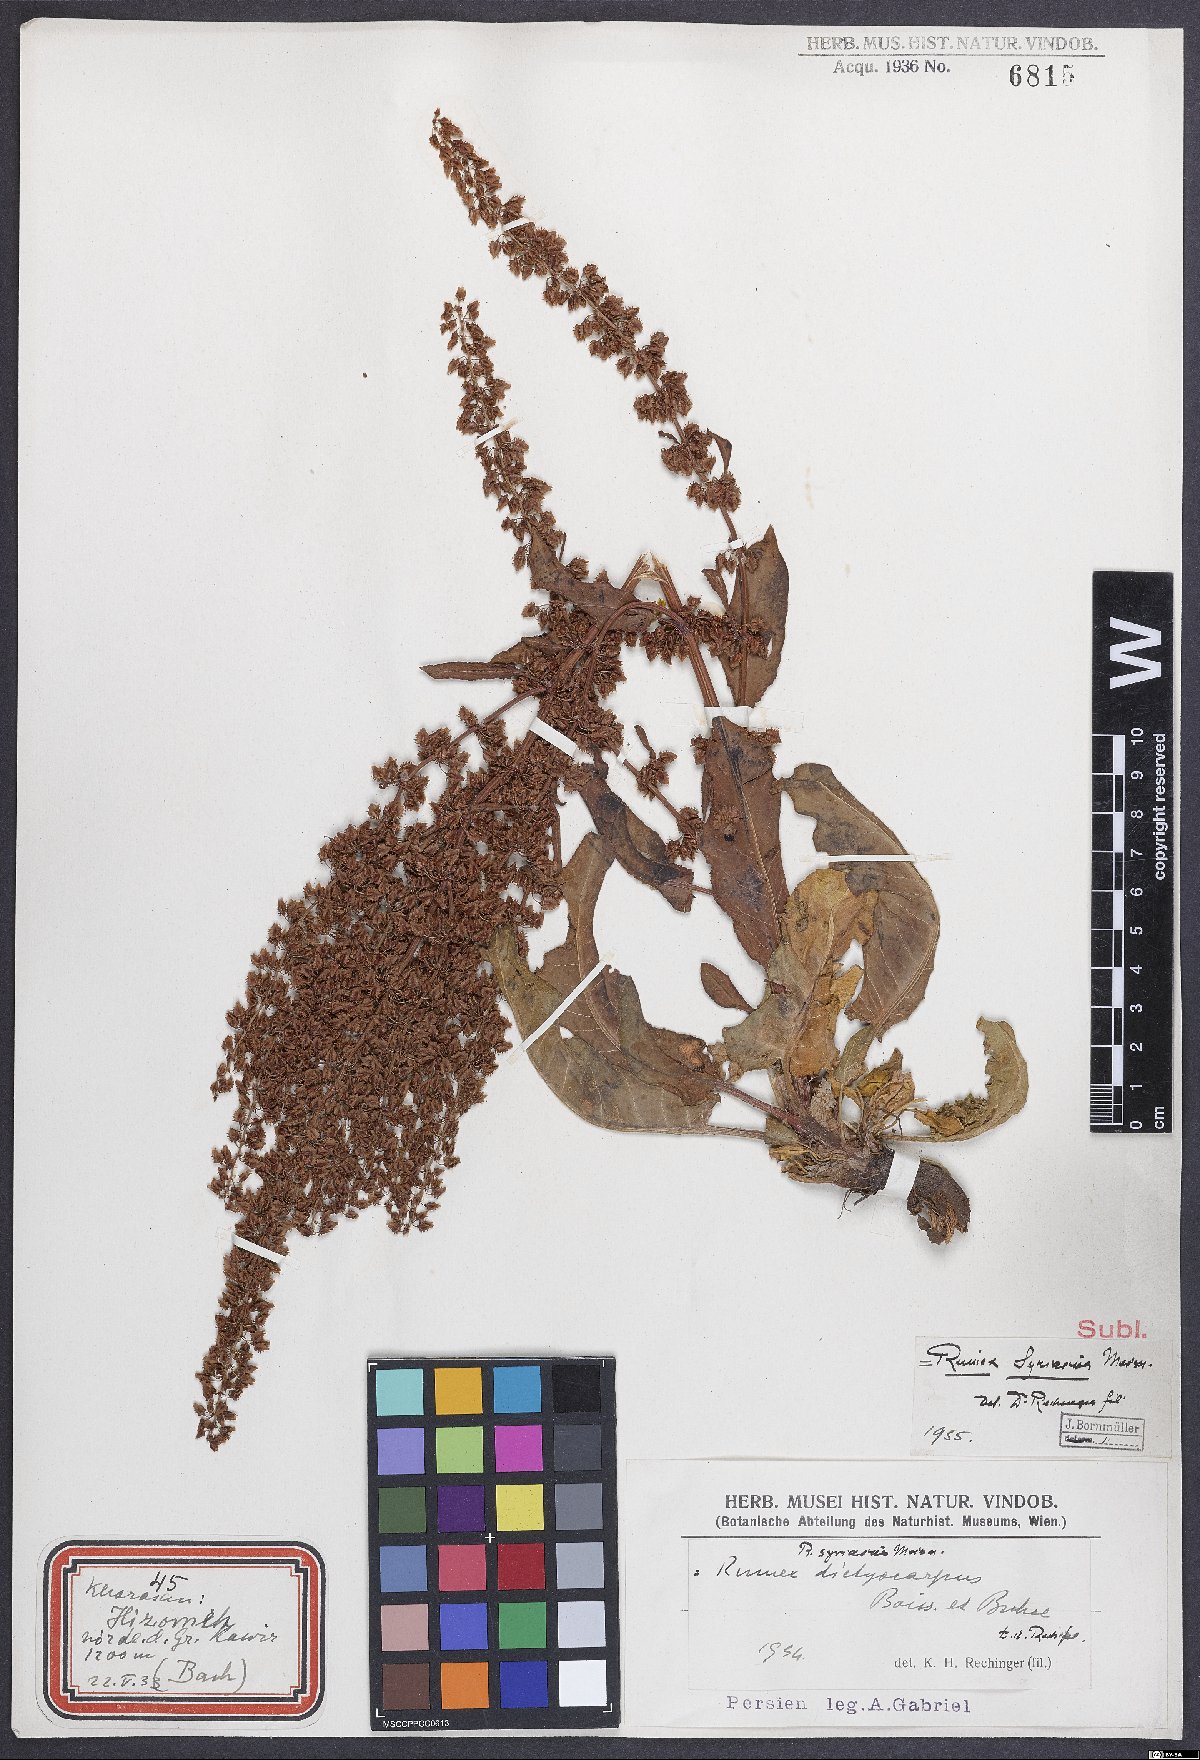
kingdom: Plantae
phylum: Tracheophyta
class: Magnoliopsida
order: Caryophyllales
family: Polygonaceae
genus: Rumex
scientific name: Rumex
